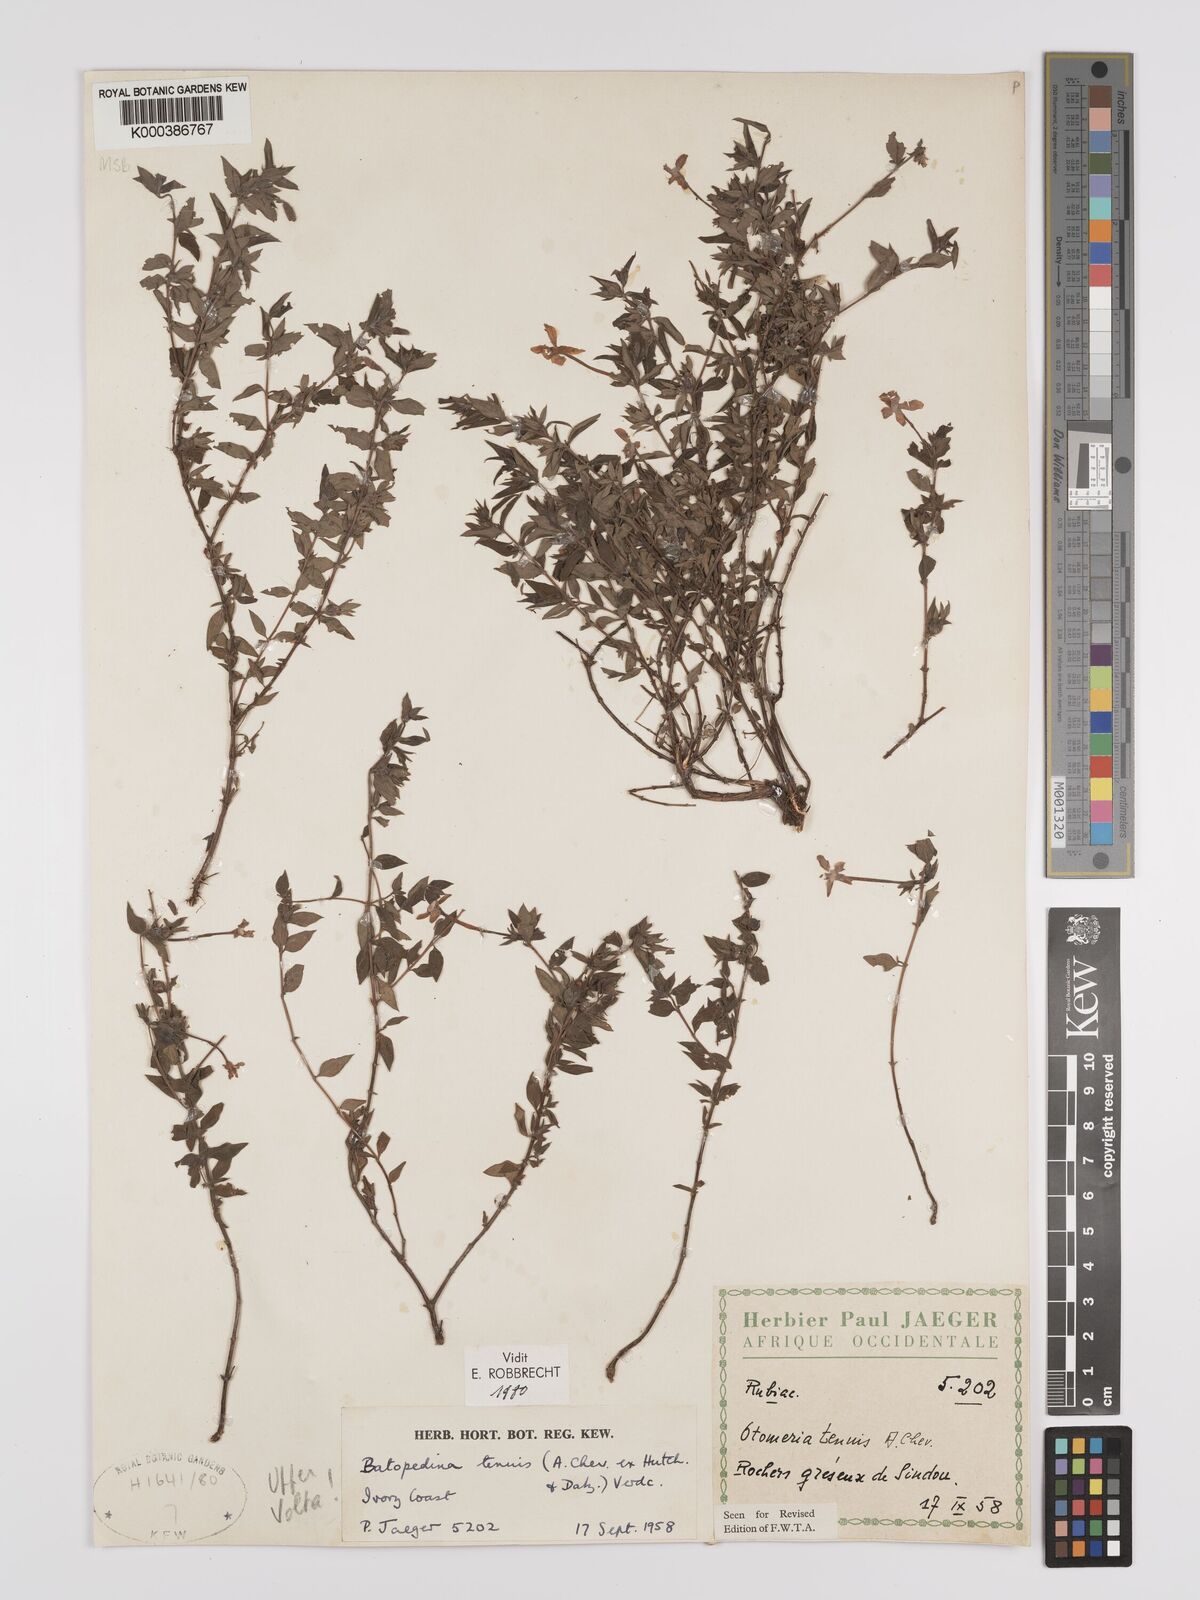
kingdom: Plantae
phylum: Tracheophyta
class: Magnoliopsida
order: Gentianales
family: Rubiaceae
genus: Batopedina
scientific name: Batopedina tenuis
